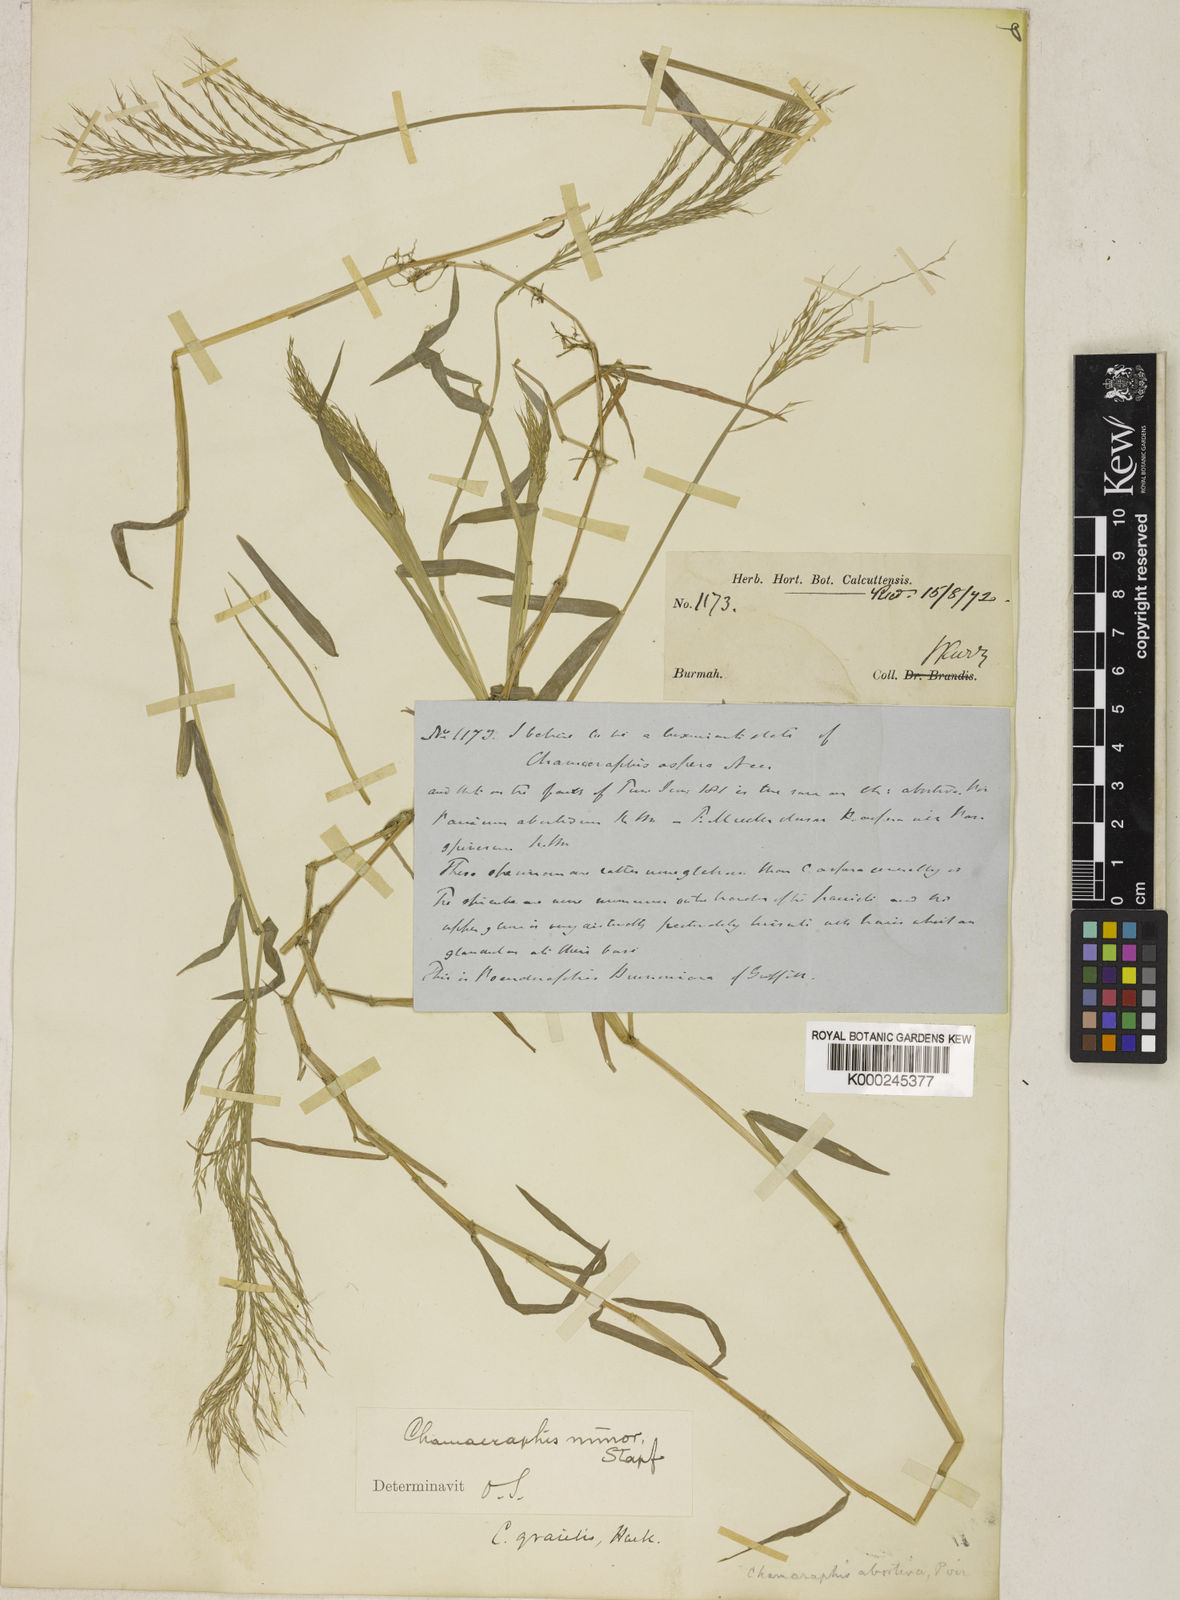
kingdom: Plantae
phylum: Tracheophyta
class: Liliopsida
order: Poales
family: Poaceae
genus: Pseudoraphis
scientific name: Pseudoraphis minuta
